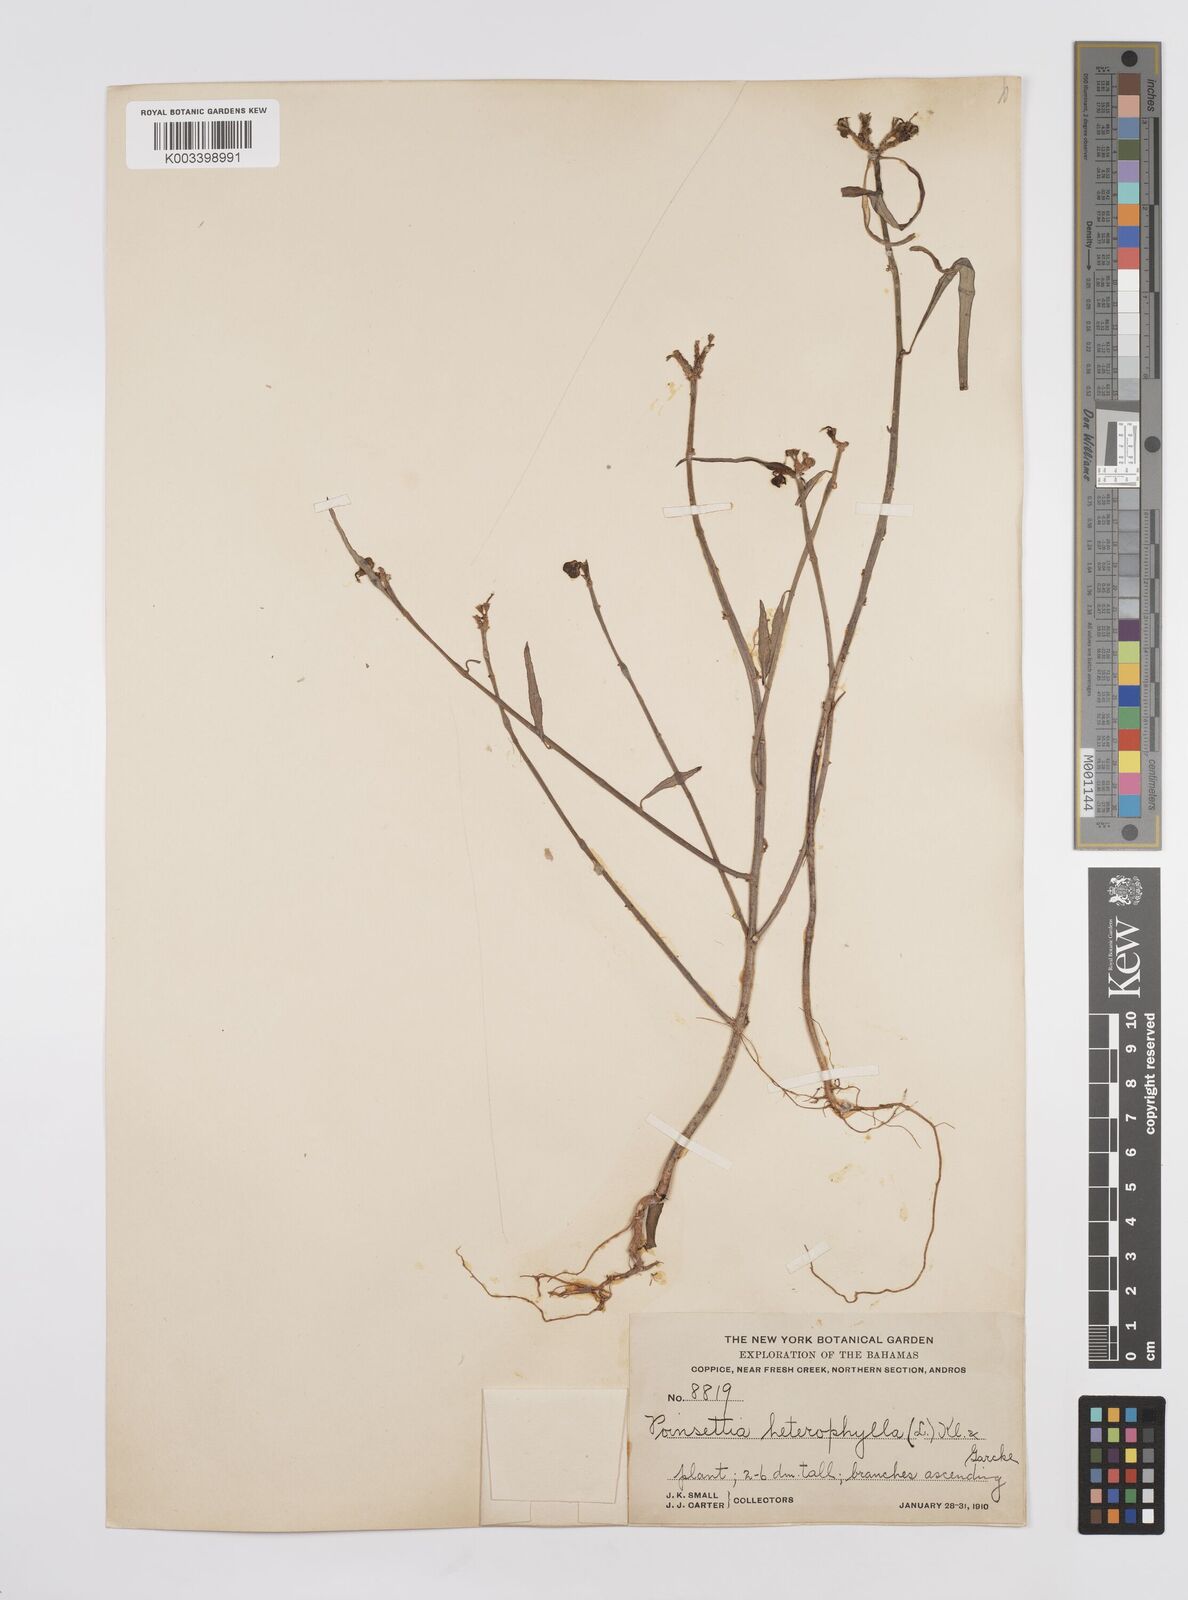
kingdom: Plantae
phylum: Tracheophyta
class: Magnoliopsida
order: Malpighiales
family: Euphorbiaceae
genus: Euphorbia
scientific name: Euphorbia heterophylla
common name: Mexican fireplant
